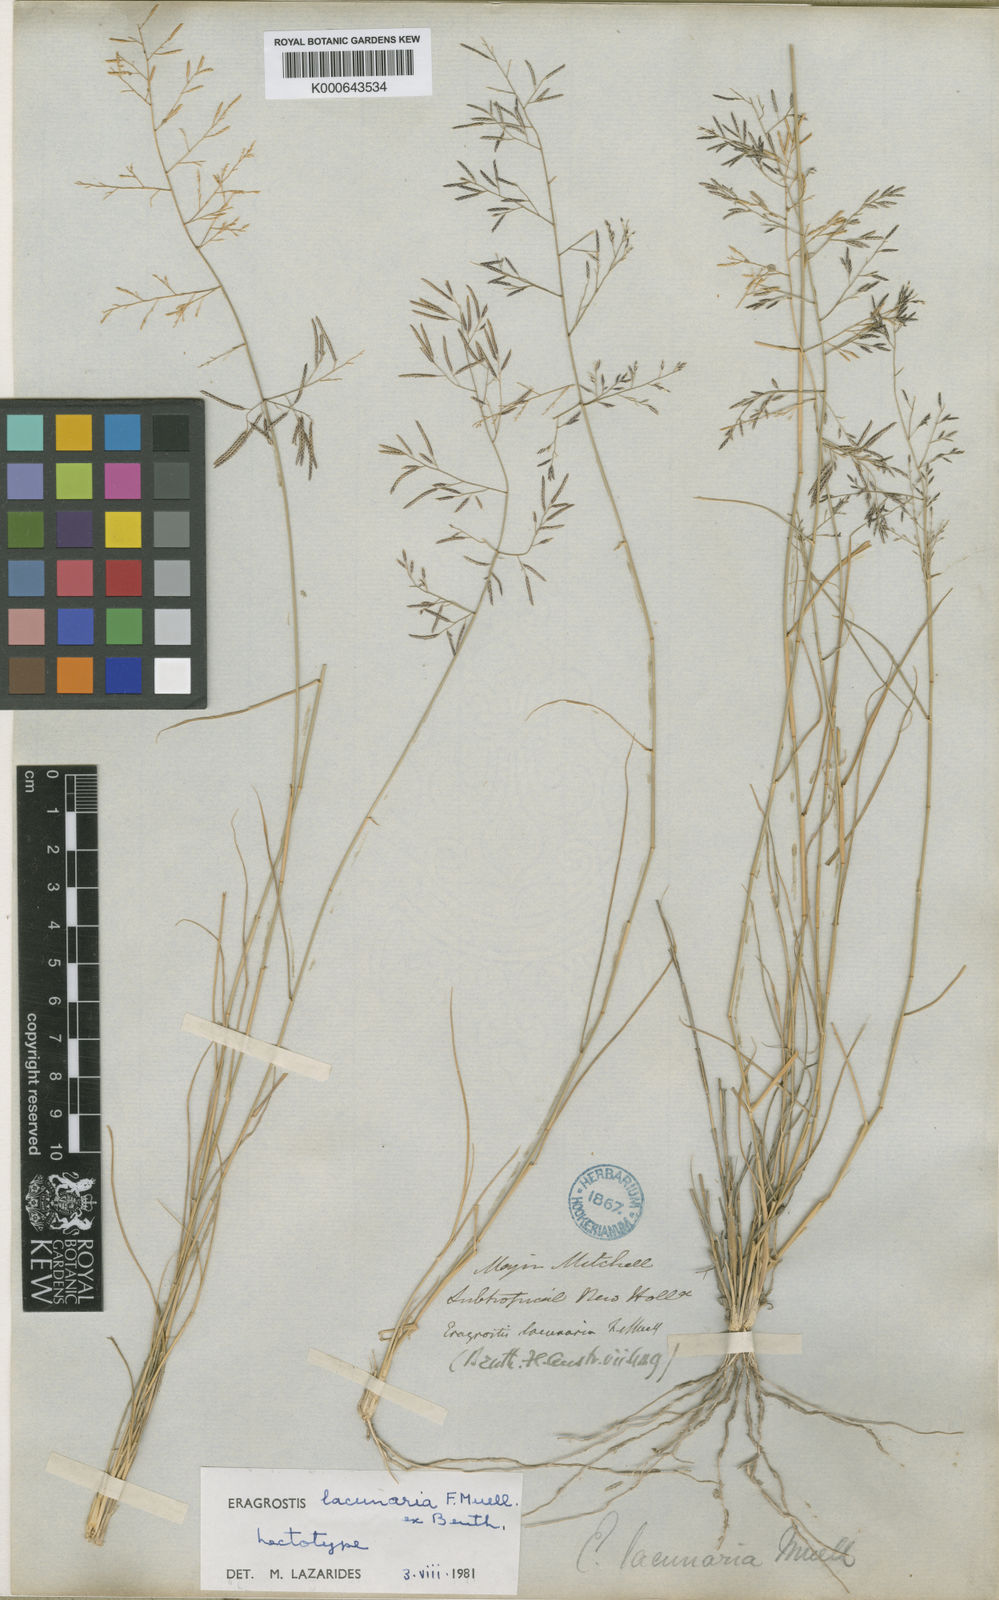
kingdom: Plantae
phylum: Tracheophyta
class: Liliopsida
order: Poales
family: Poaceae
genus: Eragrostis
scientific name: Eragrostis lacunaria
